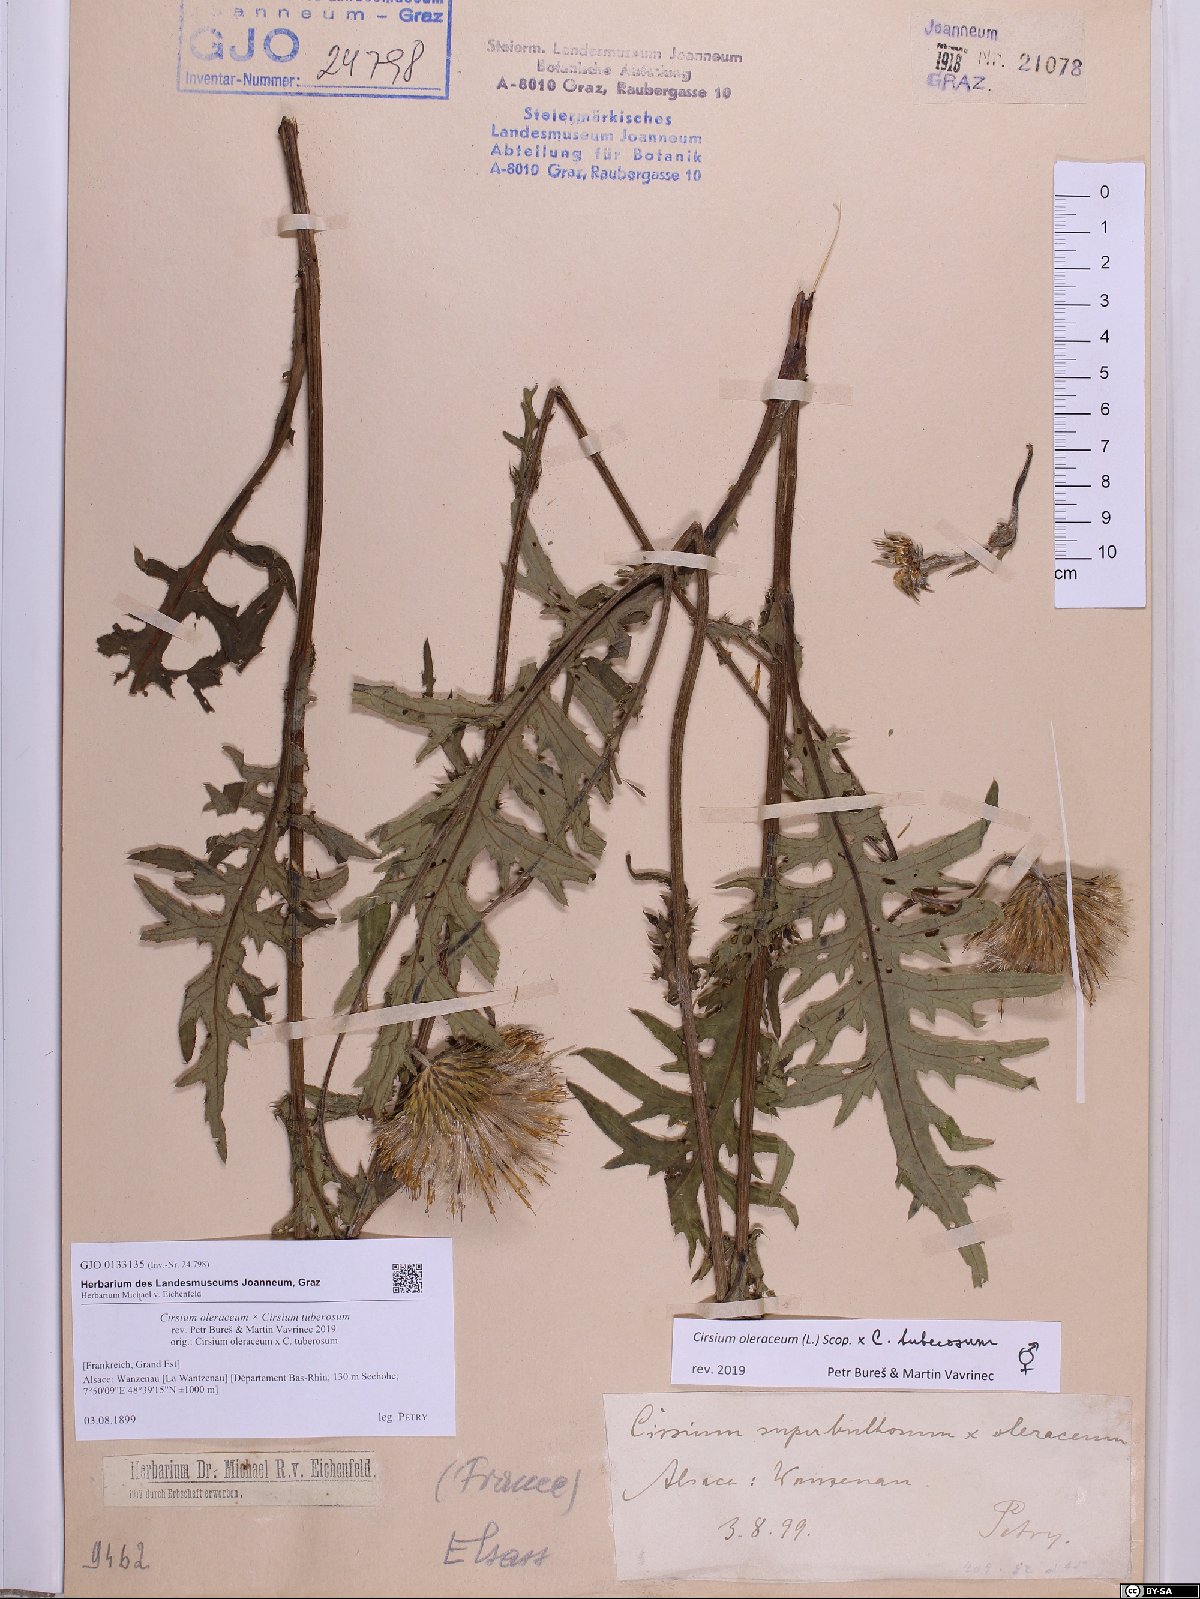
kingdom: Plantae
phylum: Tracheophyta
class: Magnoliopsida
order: Asterales
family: Asteraceae
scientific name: Asteraceae
